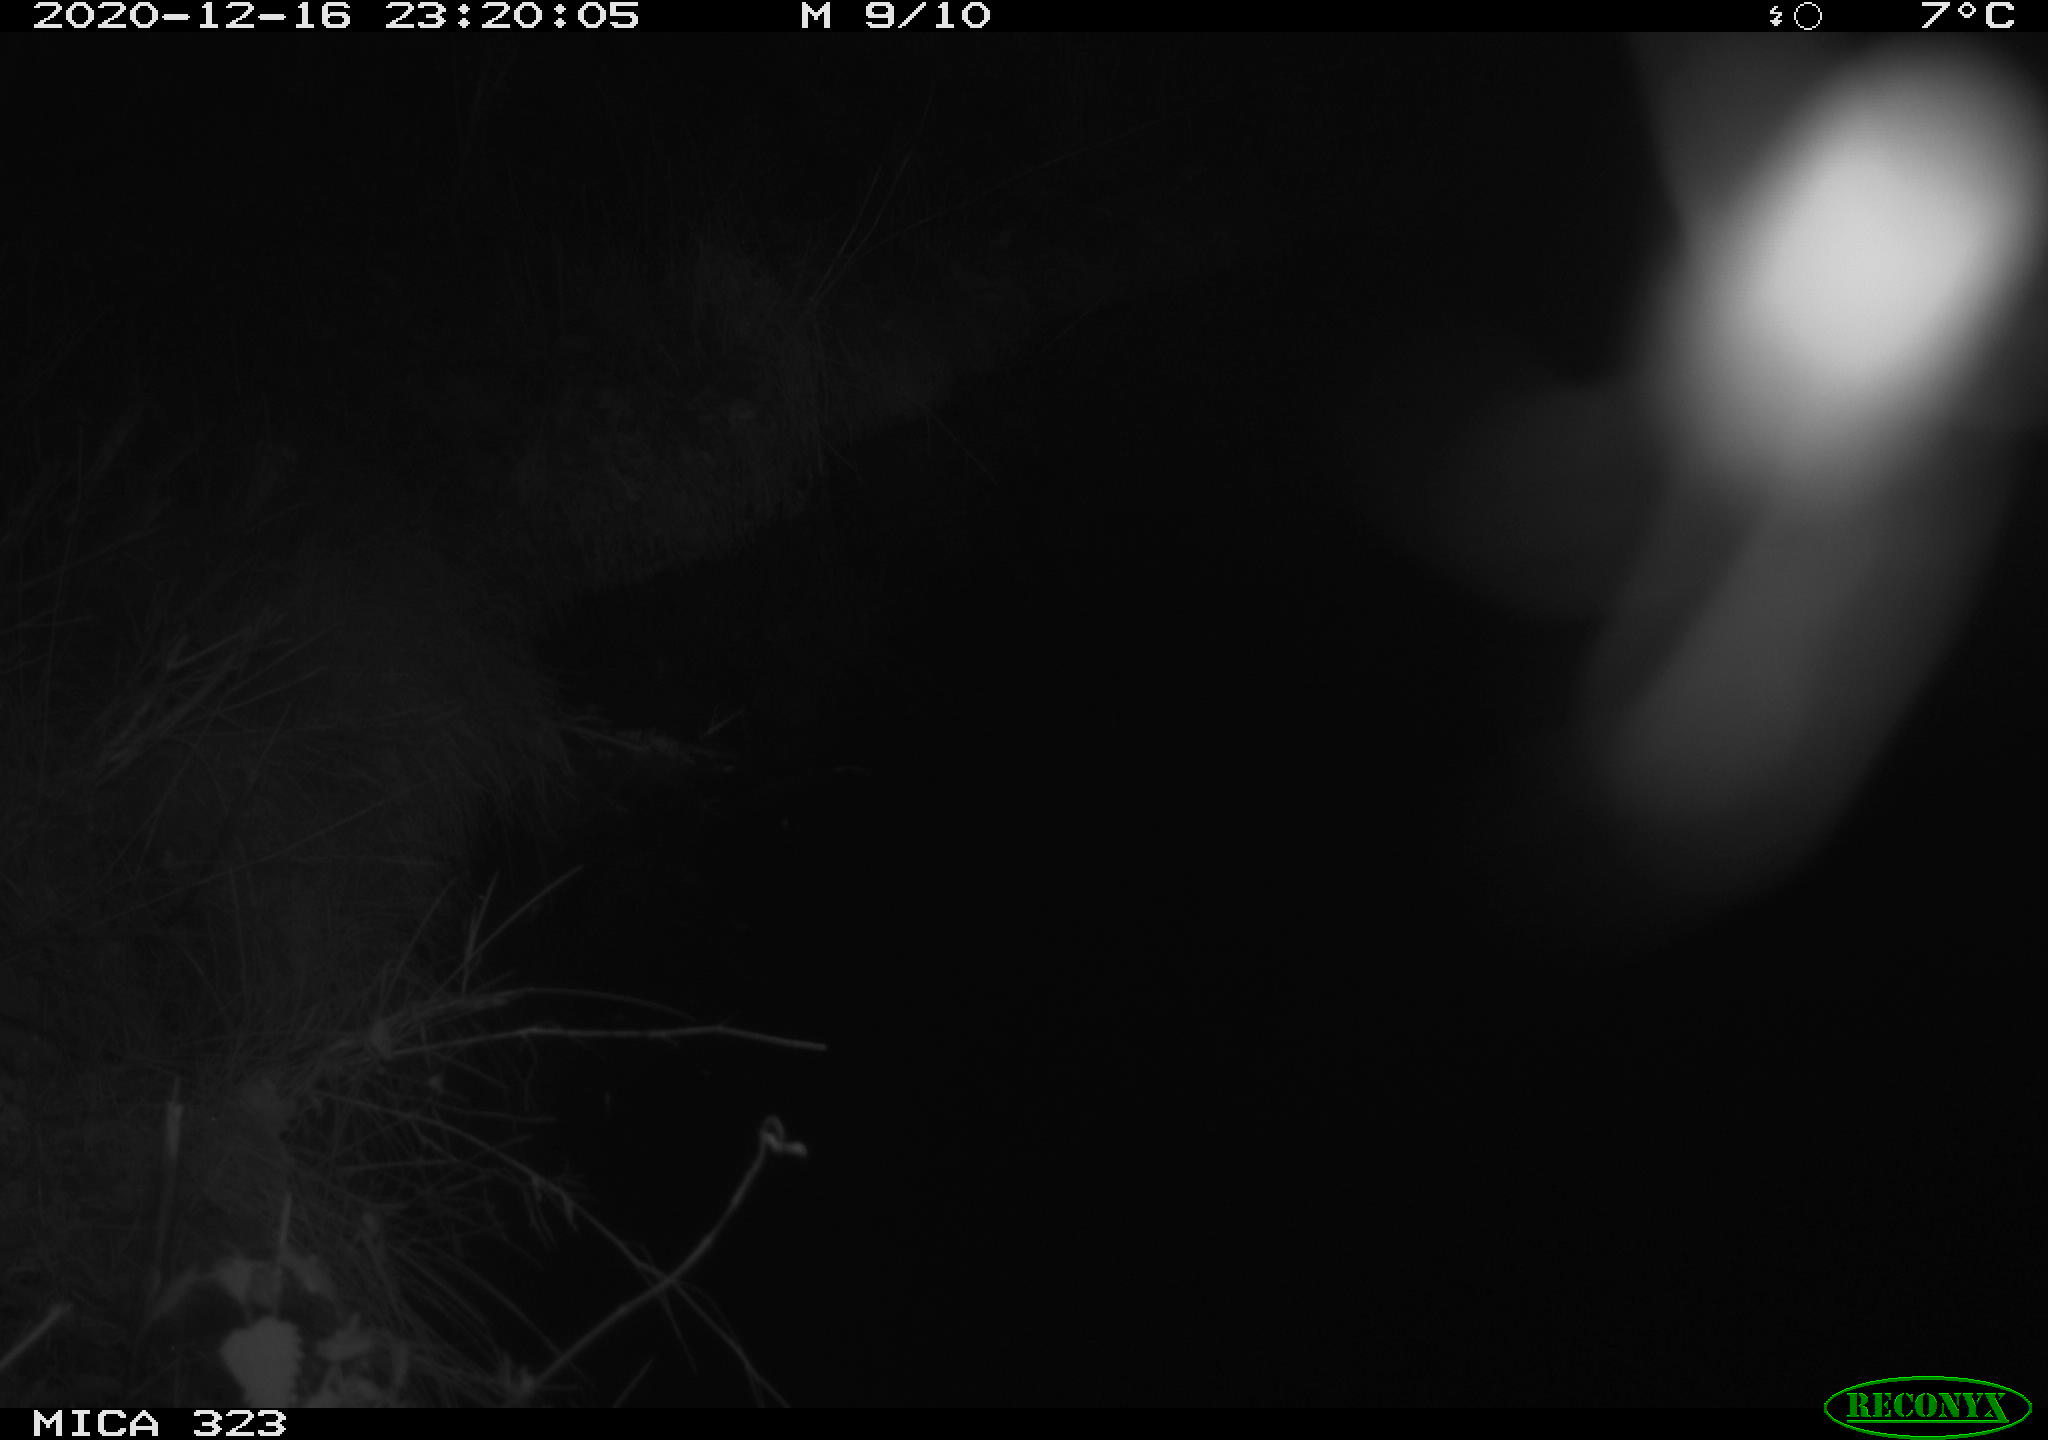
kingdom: Animalia
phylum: Chordata
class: Mammalia
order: Rodentia
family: Muridae
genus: Rattus
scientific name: Rattus norvegicus
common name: Brown rat
